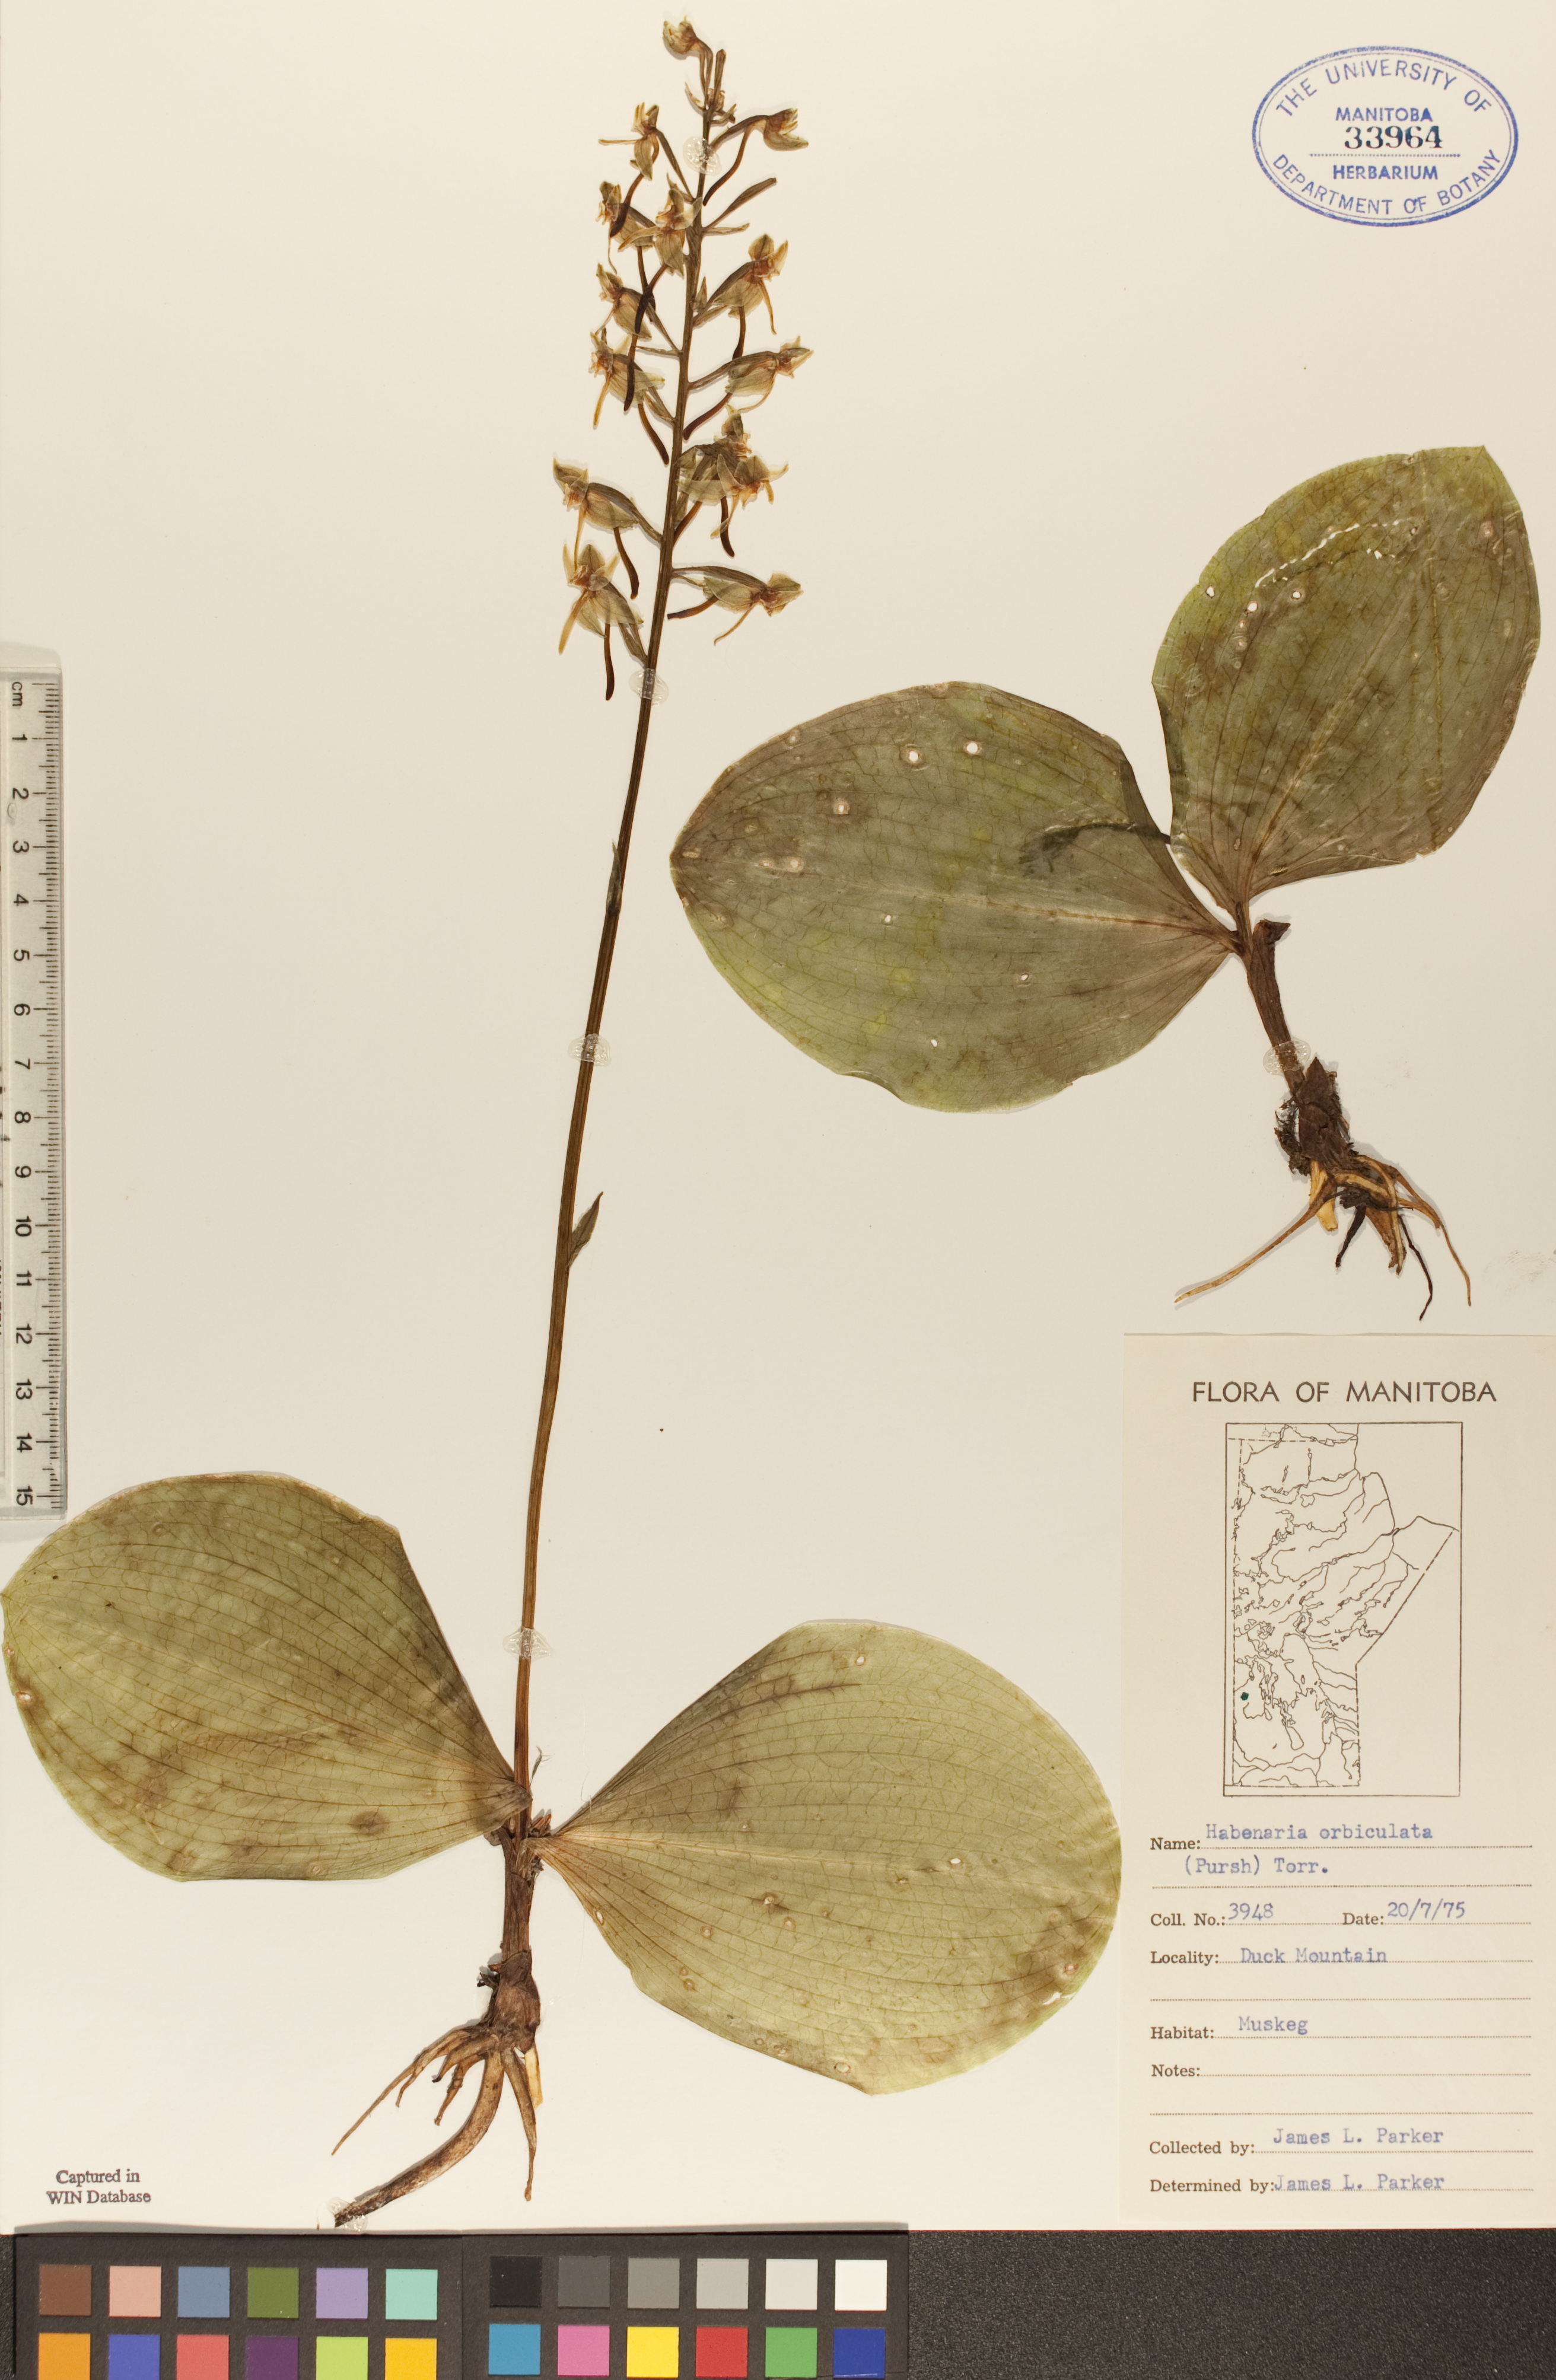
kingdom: Plantae
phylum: Tracheophyta
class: Liliopsida
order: Asparagales
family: Orchidaceae
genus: Platanthera
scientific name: Platanthera orbiculata
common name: Large round-leaved orchid
